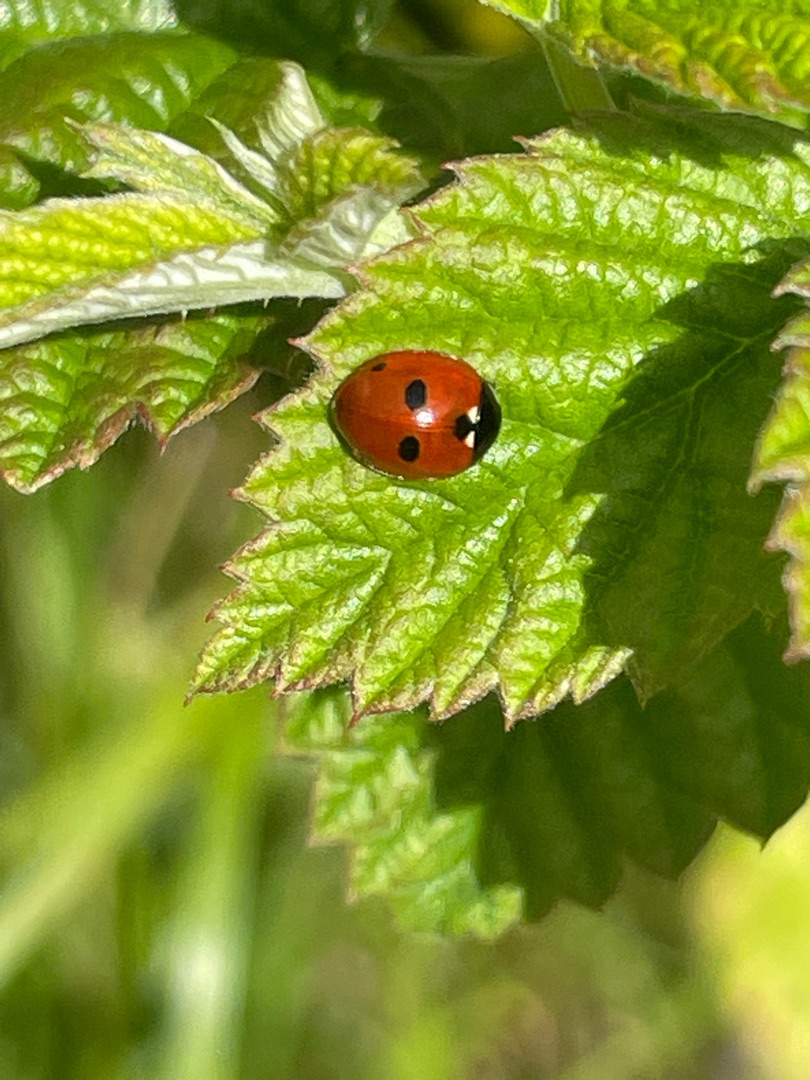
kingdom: Animalia
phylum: Arthropoda
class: Insecta
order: Coleoptera
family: Coccinellidae
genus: Coccinella
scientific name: Coccinella quinquepunctata
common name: Femplettet mariehøne
